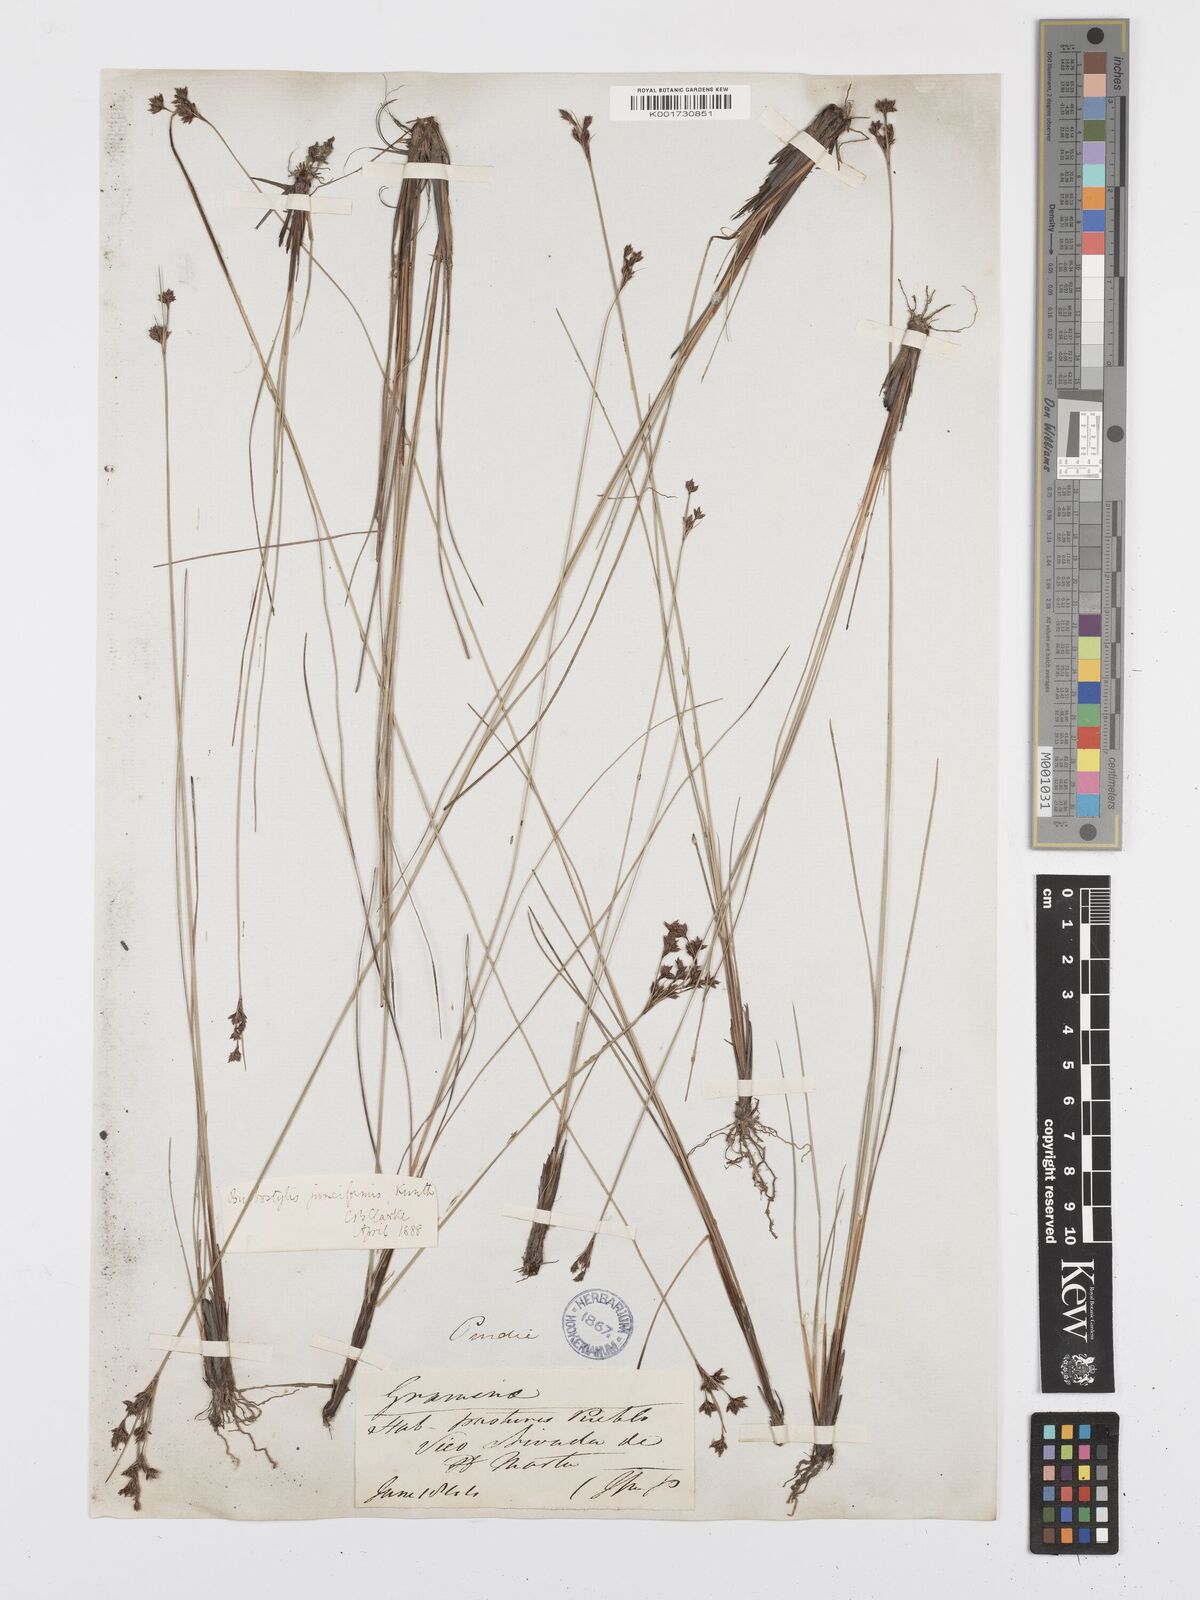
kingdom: Plantae
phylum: Tracheophyta
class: Liliopsida
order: Poales
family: Cyperaceae
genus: Bulbostylis
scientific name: Bulbostylis junciformis
